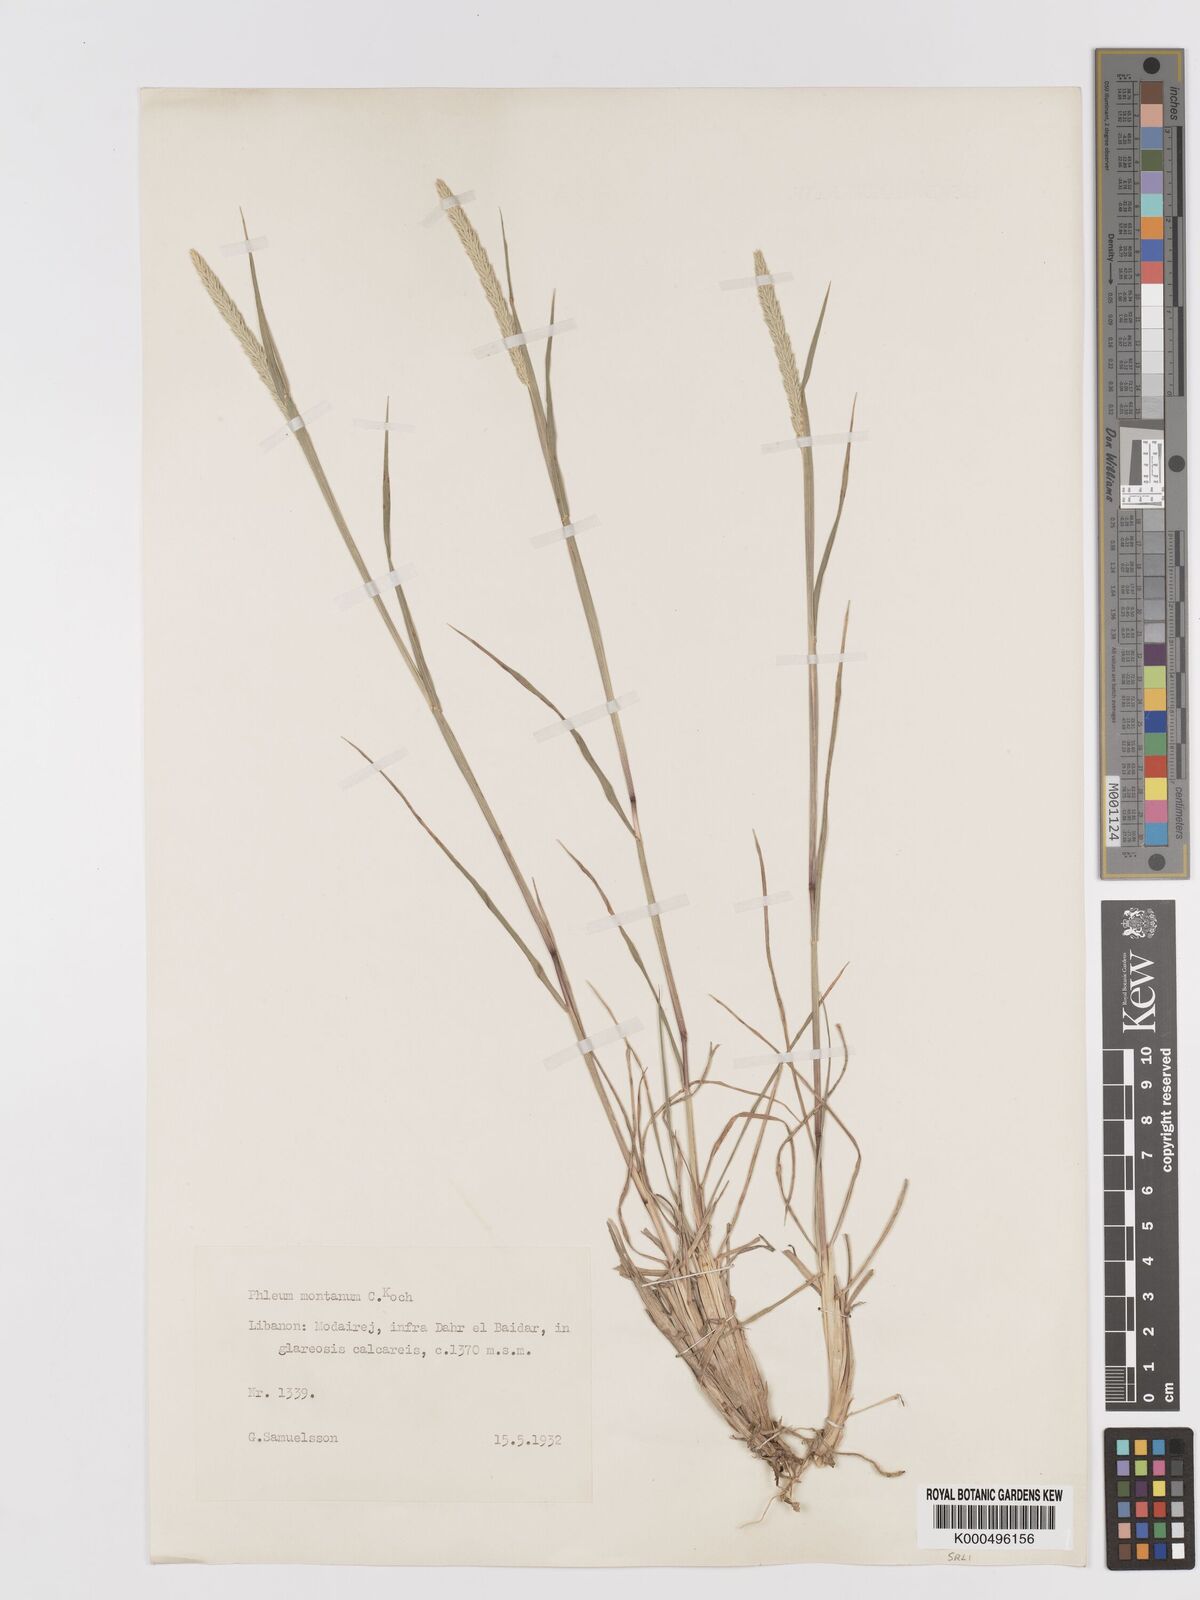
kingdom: Plantae
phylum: Tracheophyta
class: Liliopsida
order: Poales
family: Poaceae
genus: Phleum
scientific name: Phleum montanum
